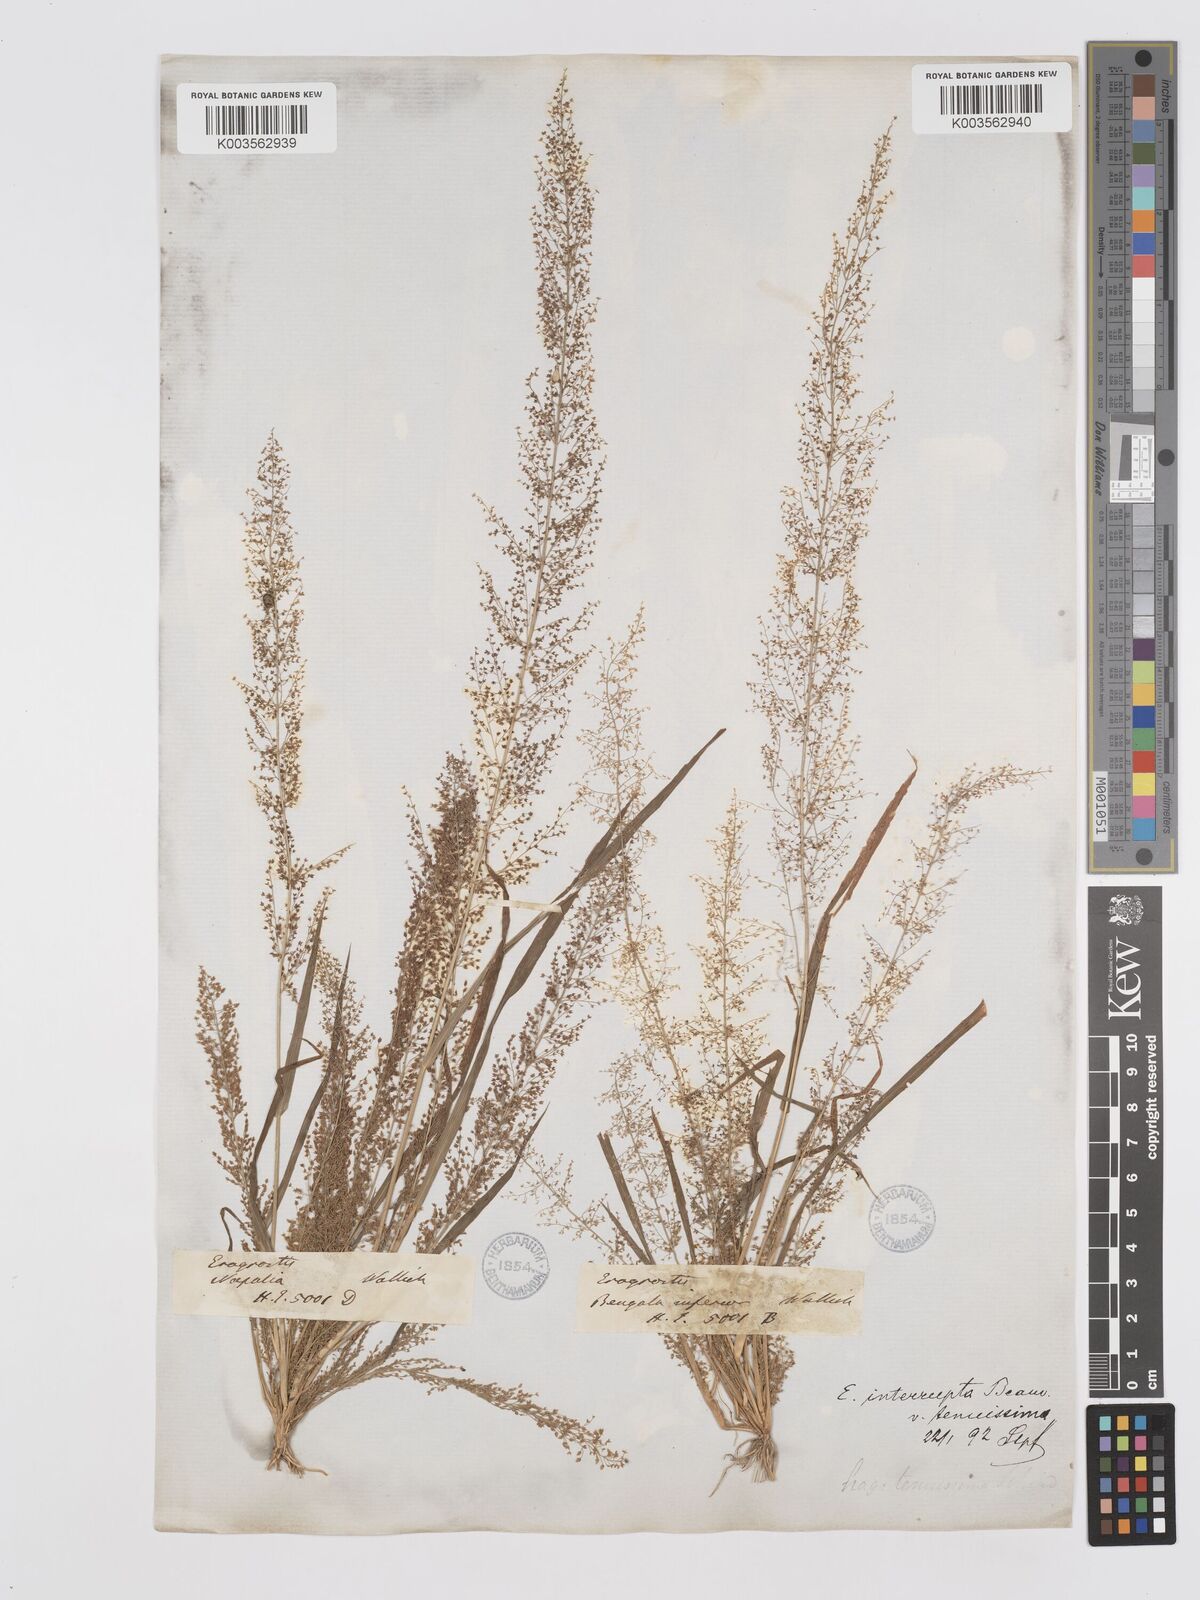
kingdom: Plantae
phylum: Tracheophyta
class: Liliopsida
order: Poales
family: Poaceae
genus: Eragrostis
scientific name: Eragrostis japonica
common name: Pond lovegrass
